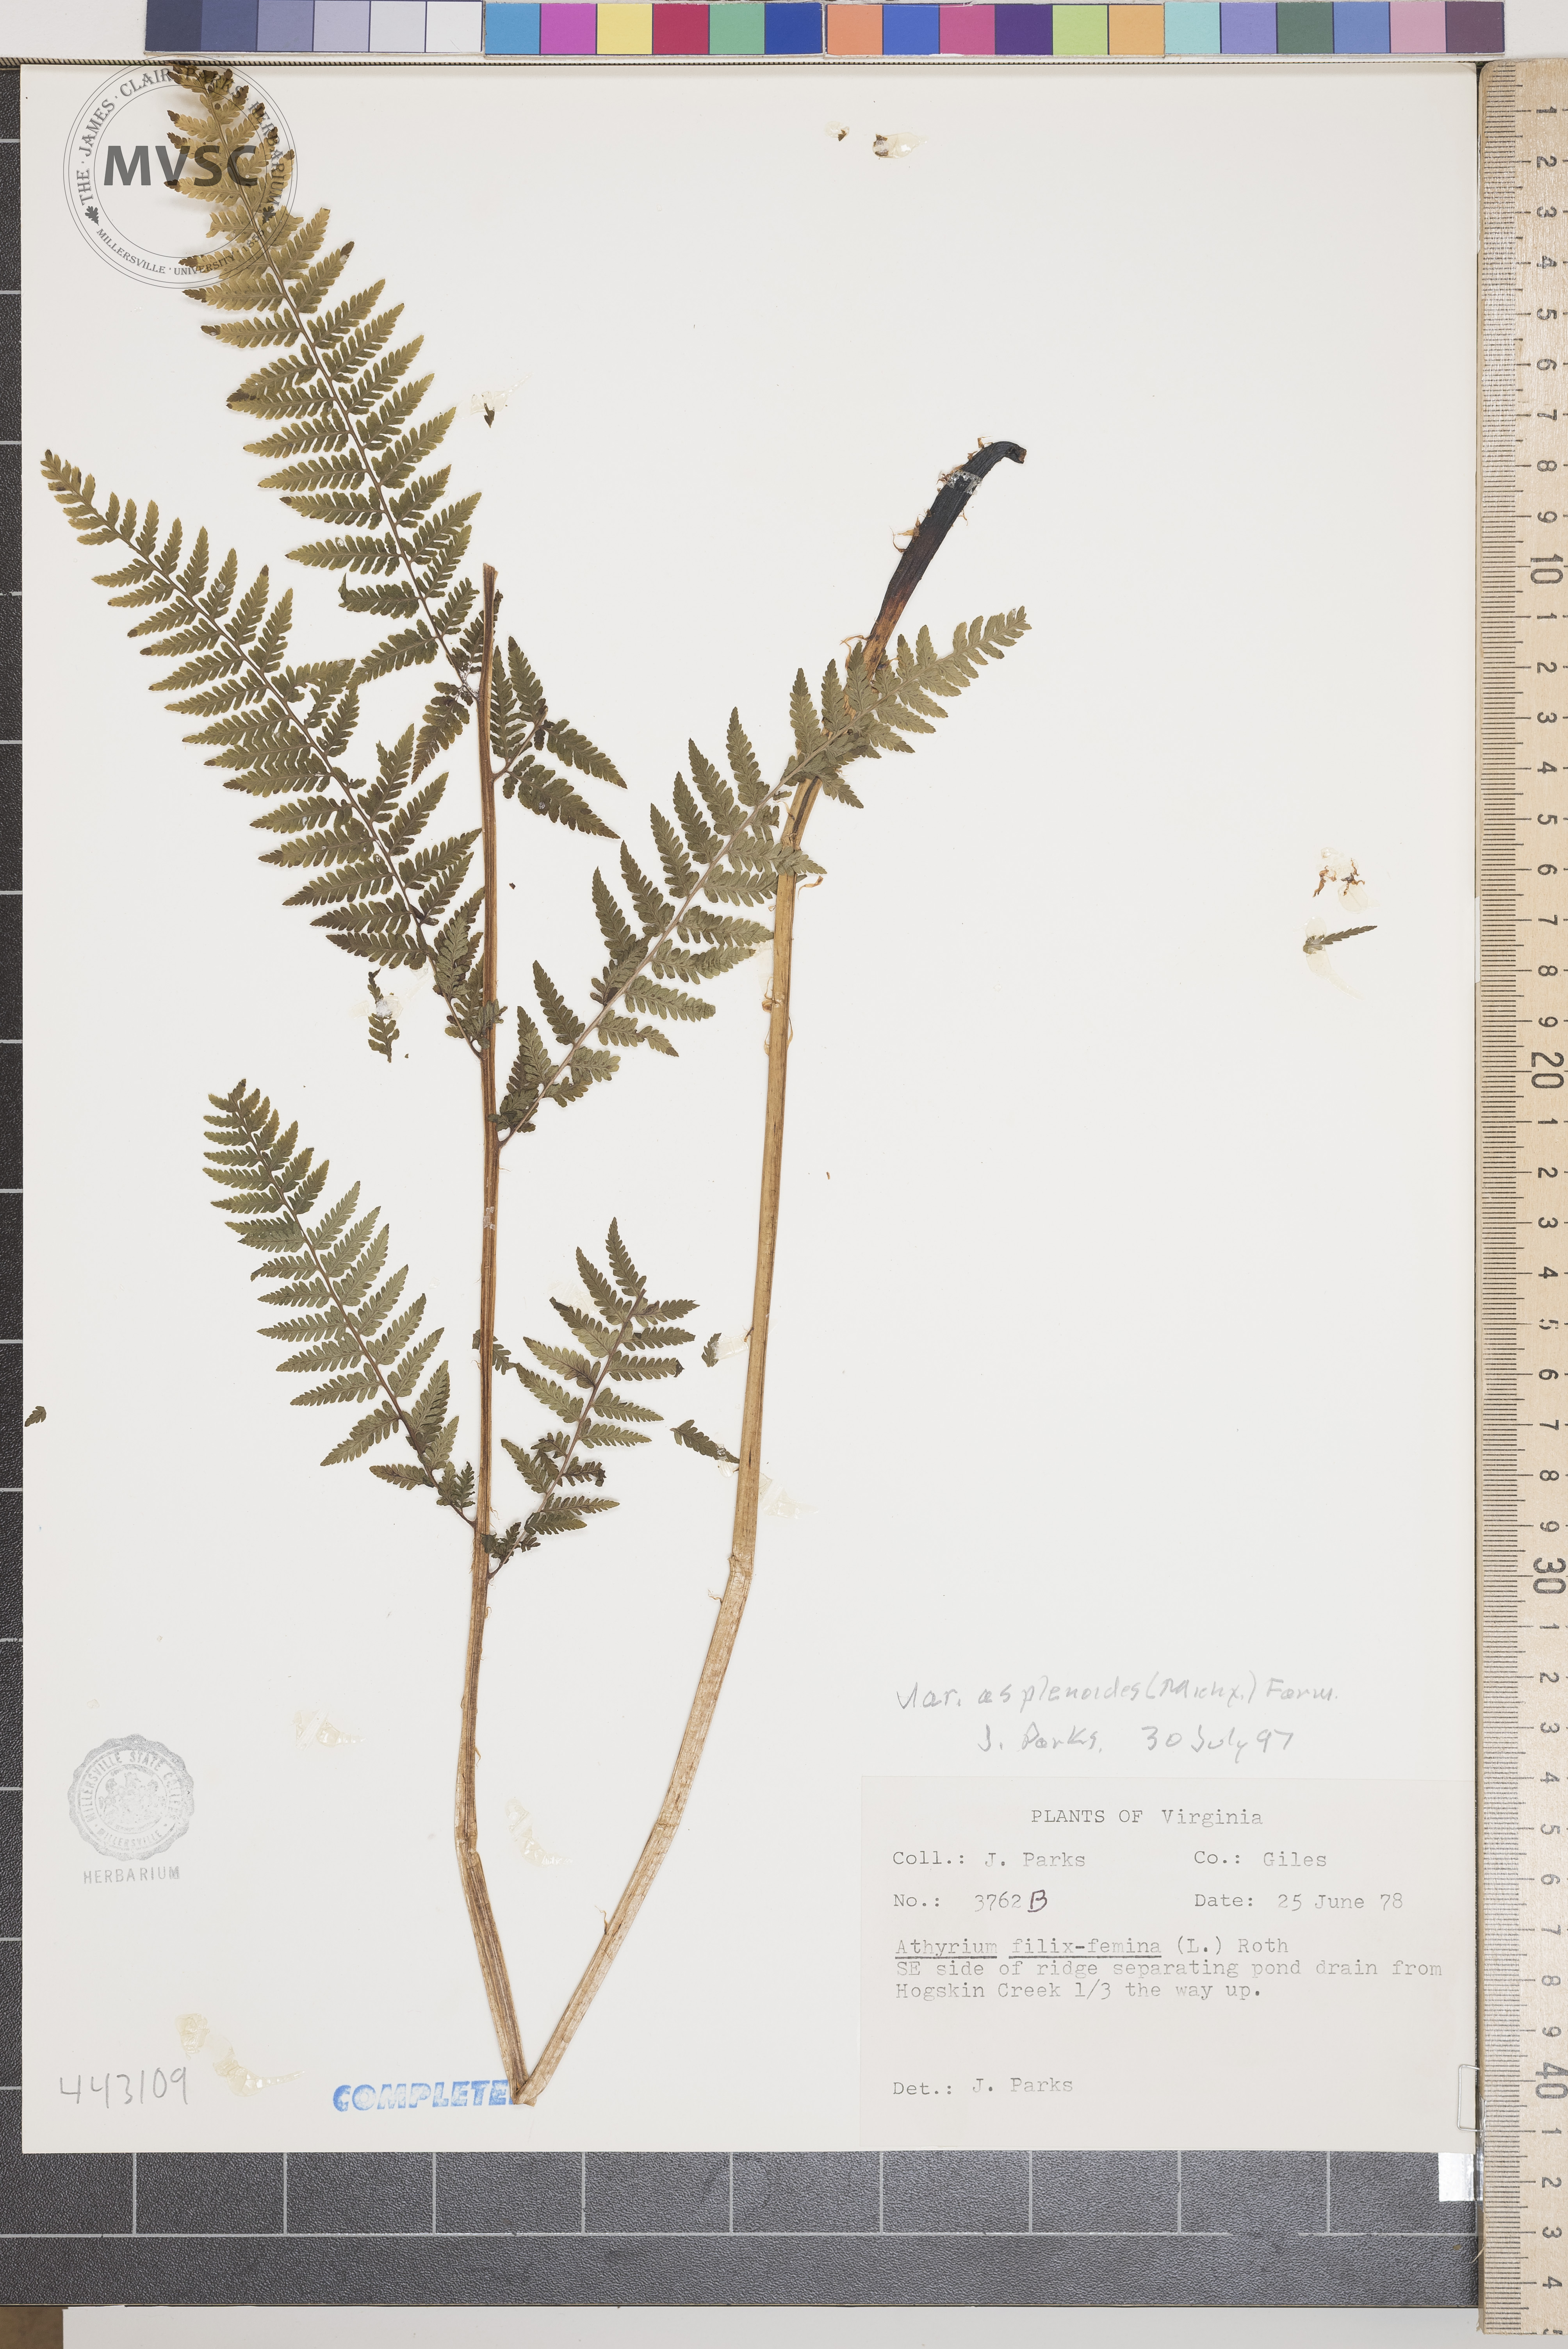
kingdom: Plantae
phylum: Tracheophyta
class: Polypodiopsida
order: Polypodiales
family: Athyriaceae
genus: Athyrium
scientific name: Athyrium filix-femina
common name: Lady fern
